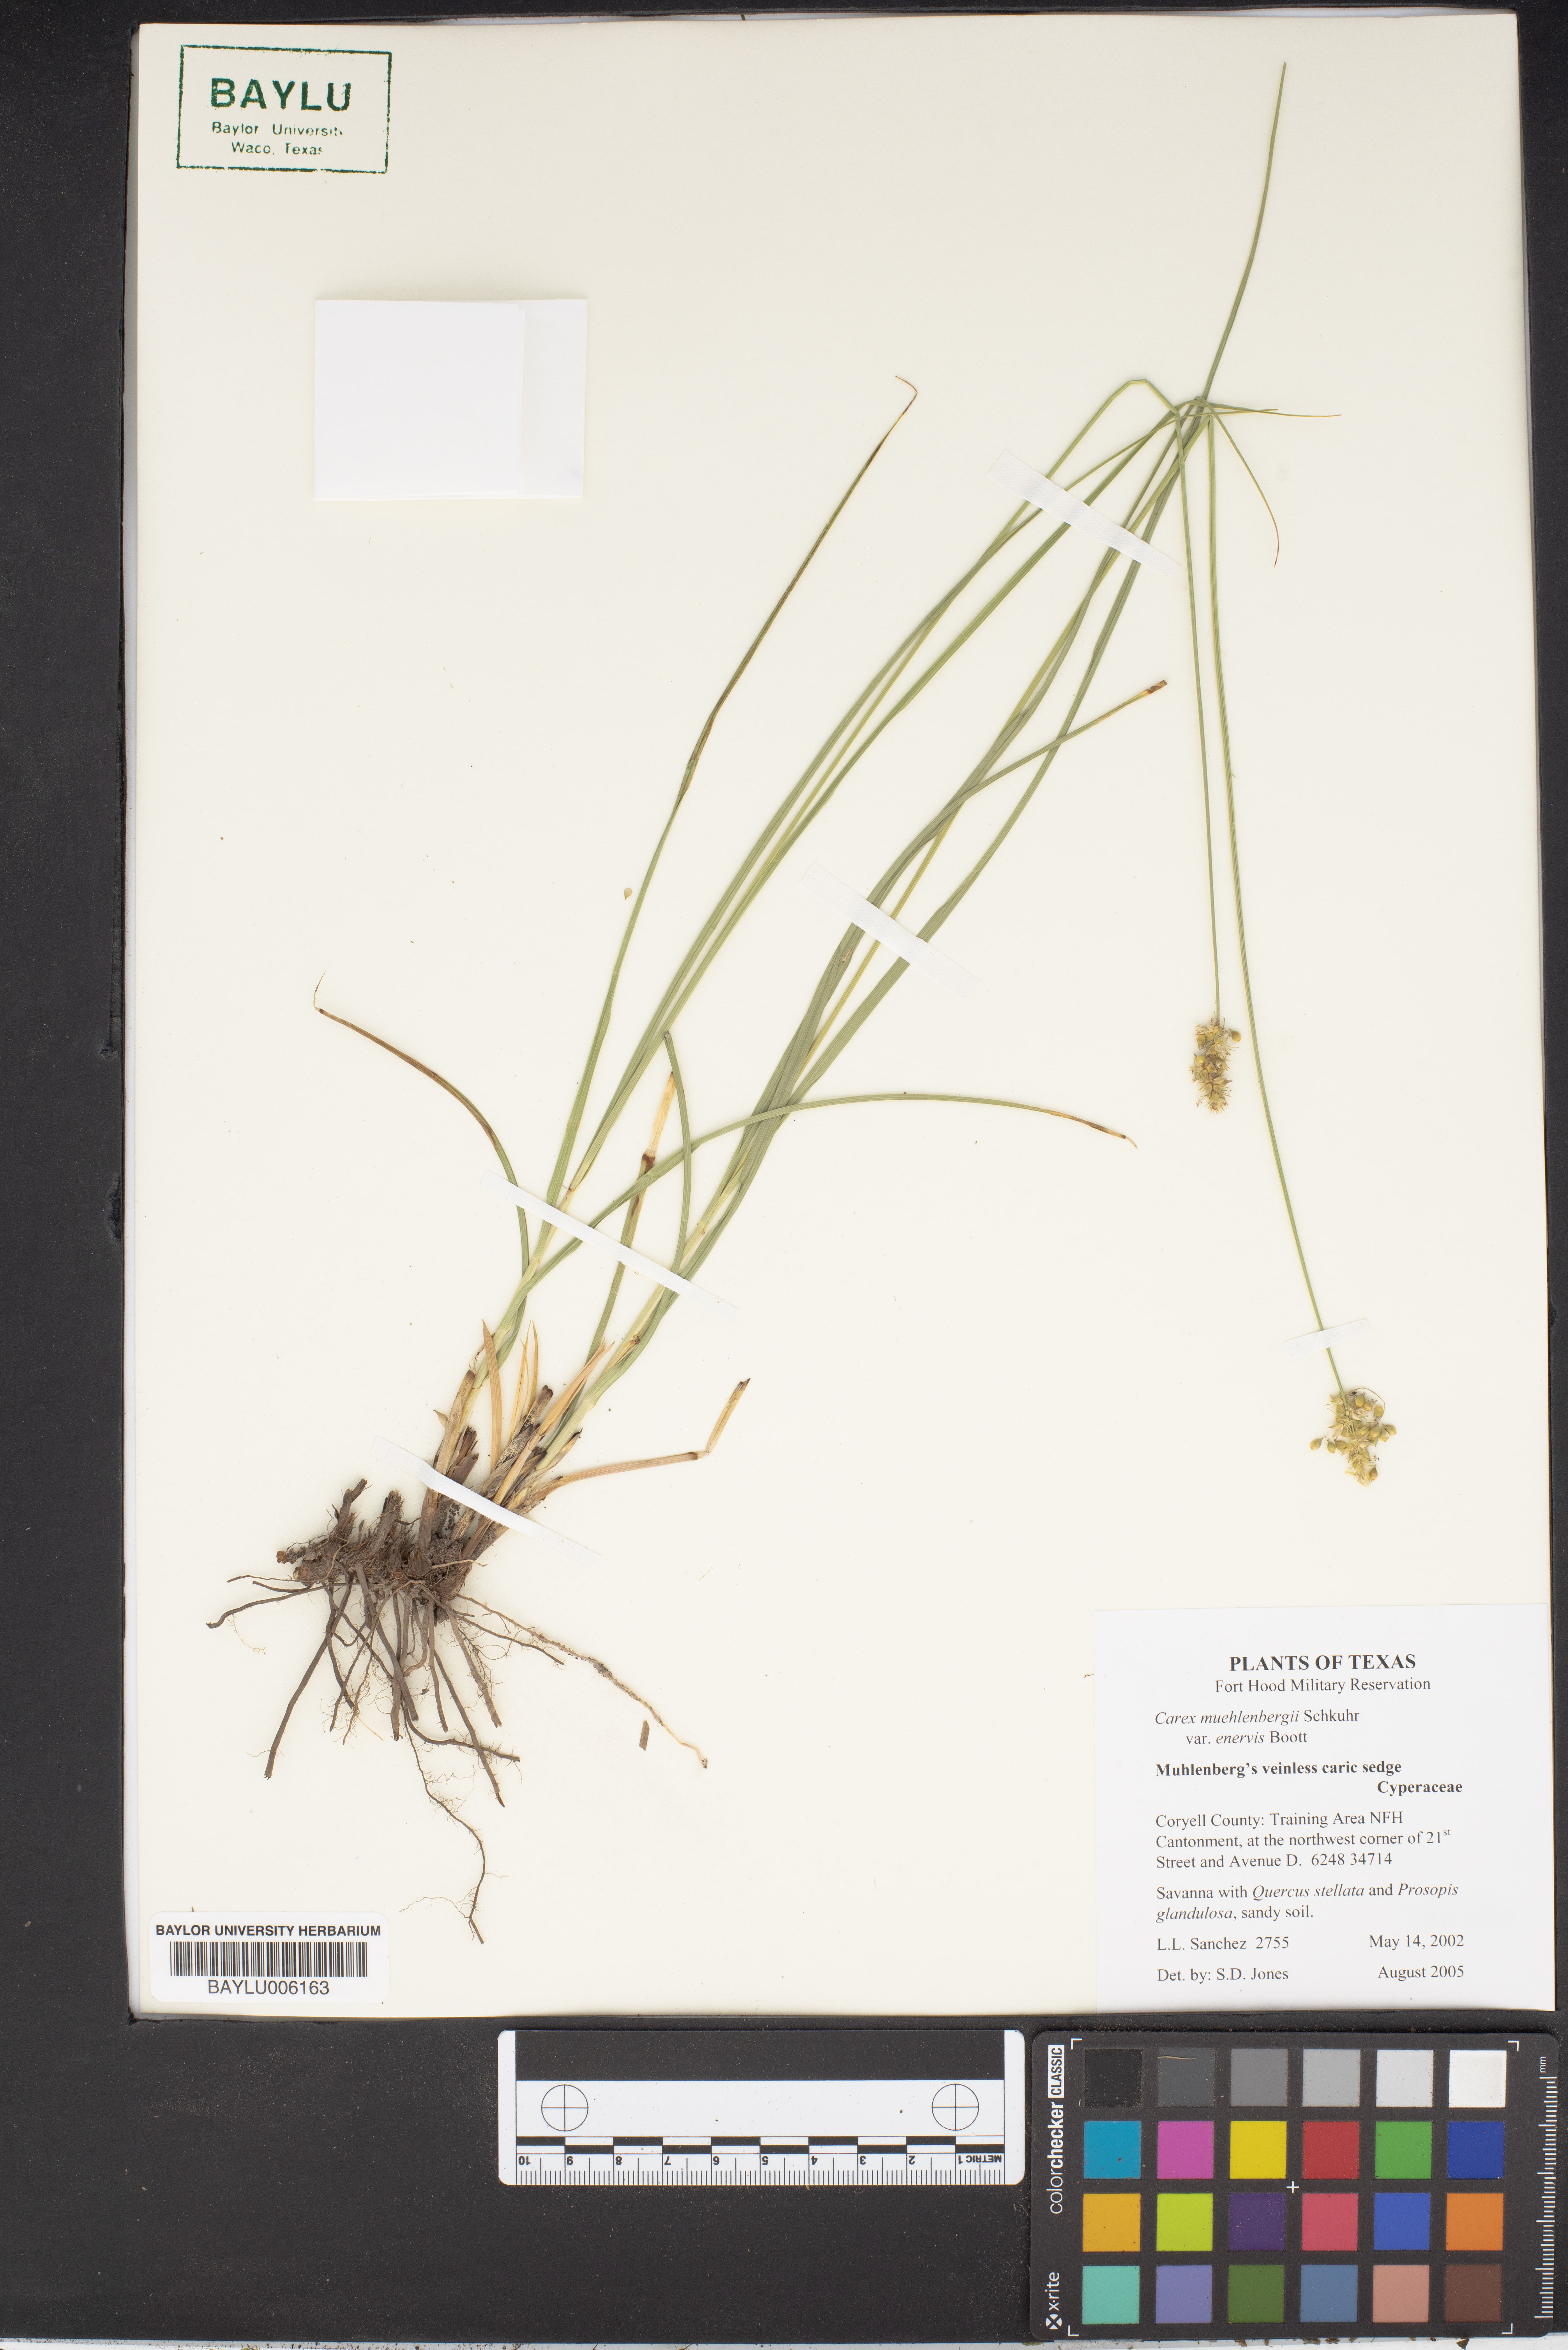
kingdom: Plantae
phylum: Tracheophyta
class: Liliopsida
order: Poales
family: Cyperaceae
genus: Carex
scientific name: Carex vulpinoidea
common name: American fox-sedge
